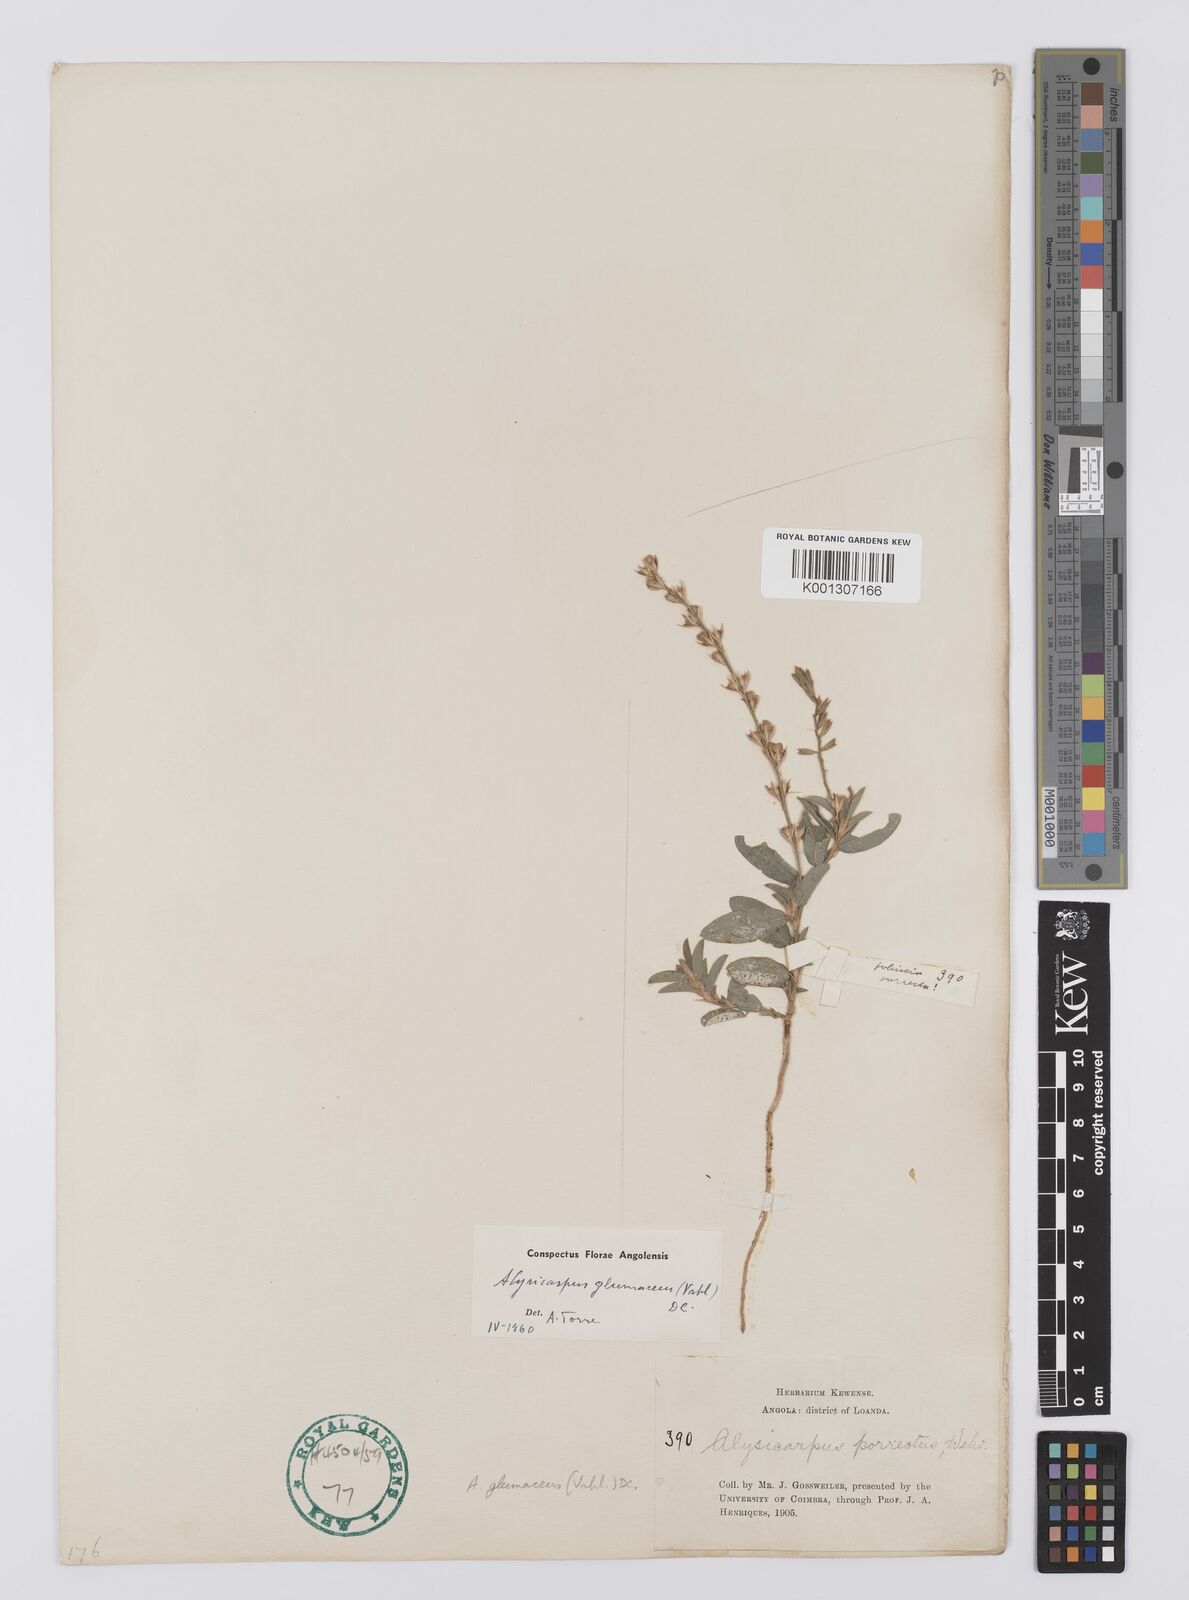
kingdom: Plantae
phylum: Tracheophyta
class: Magnoliopsida
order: Fabales
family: Fabaceae
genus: Alysicarpus
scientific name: Alysicarpus glumaceus
